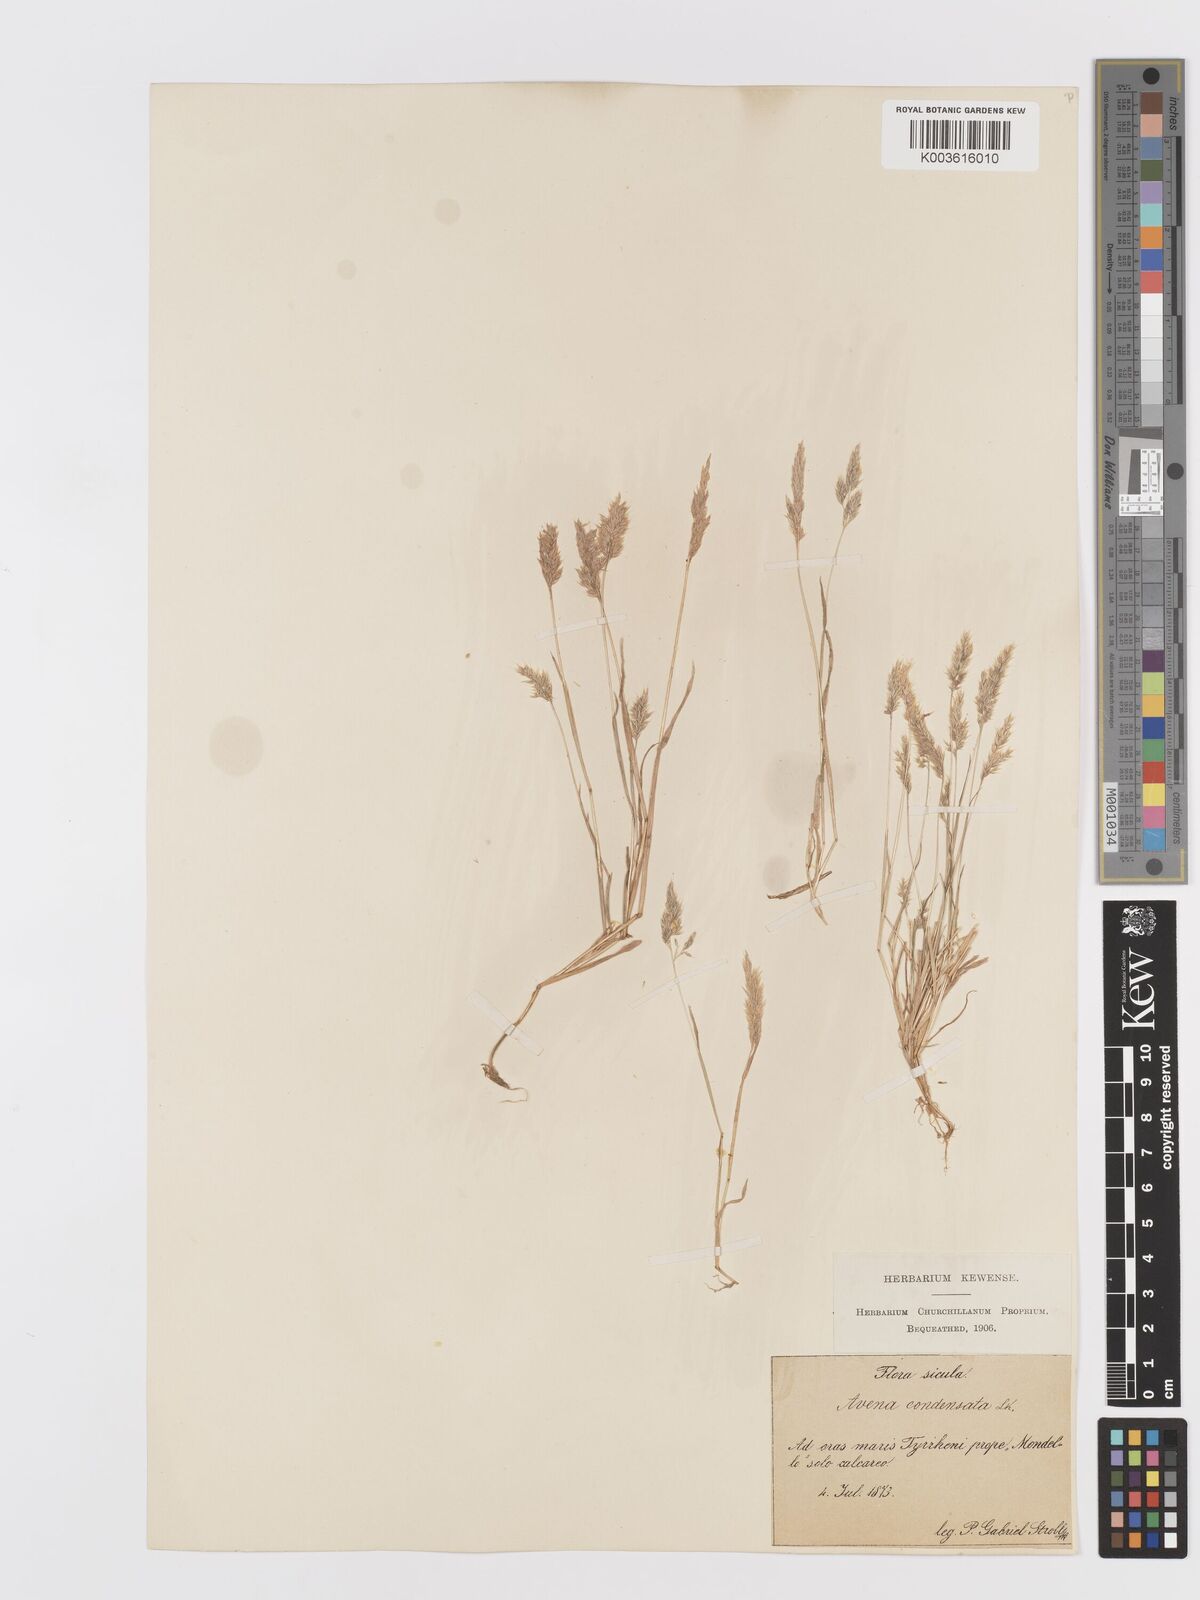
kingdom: Plantae
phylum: Tracheophyta
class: Liliopsida
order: Poales
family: Poaceae
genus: Trisetaria
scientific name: Trisetaria aurea
